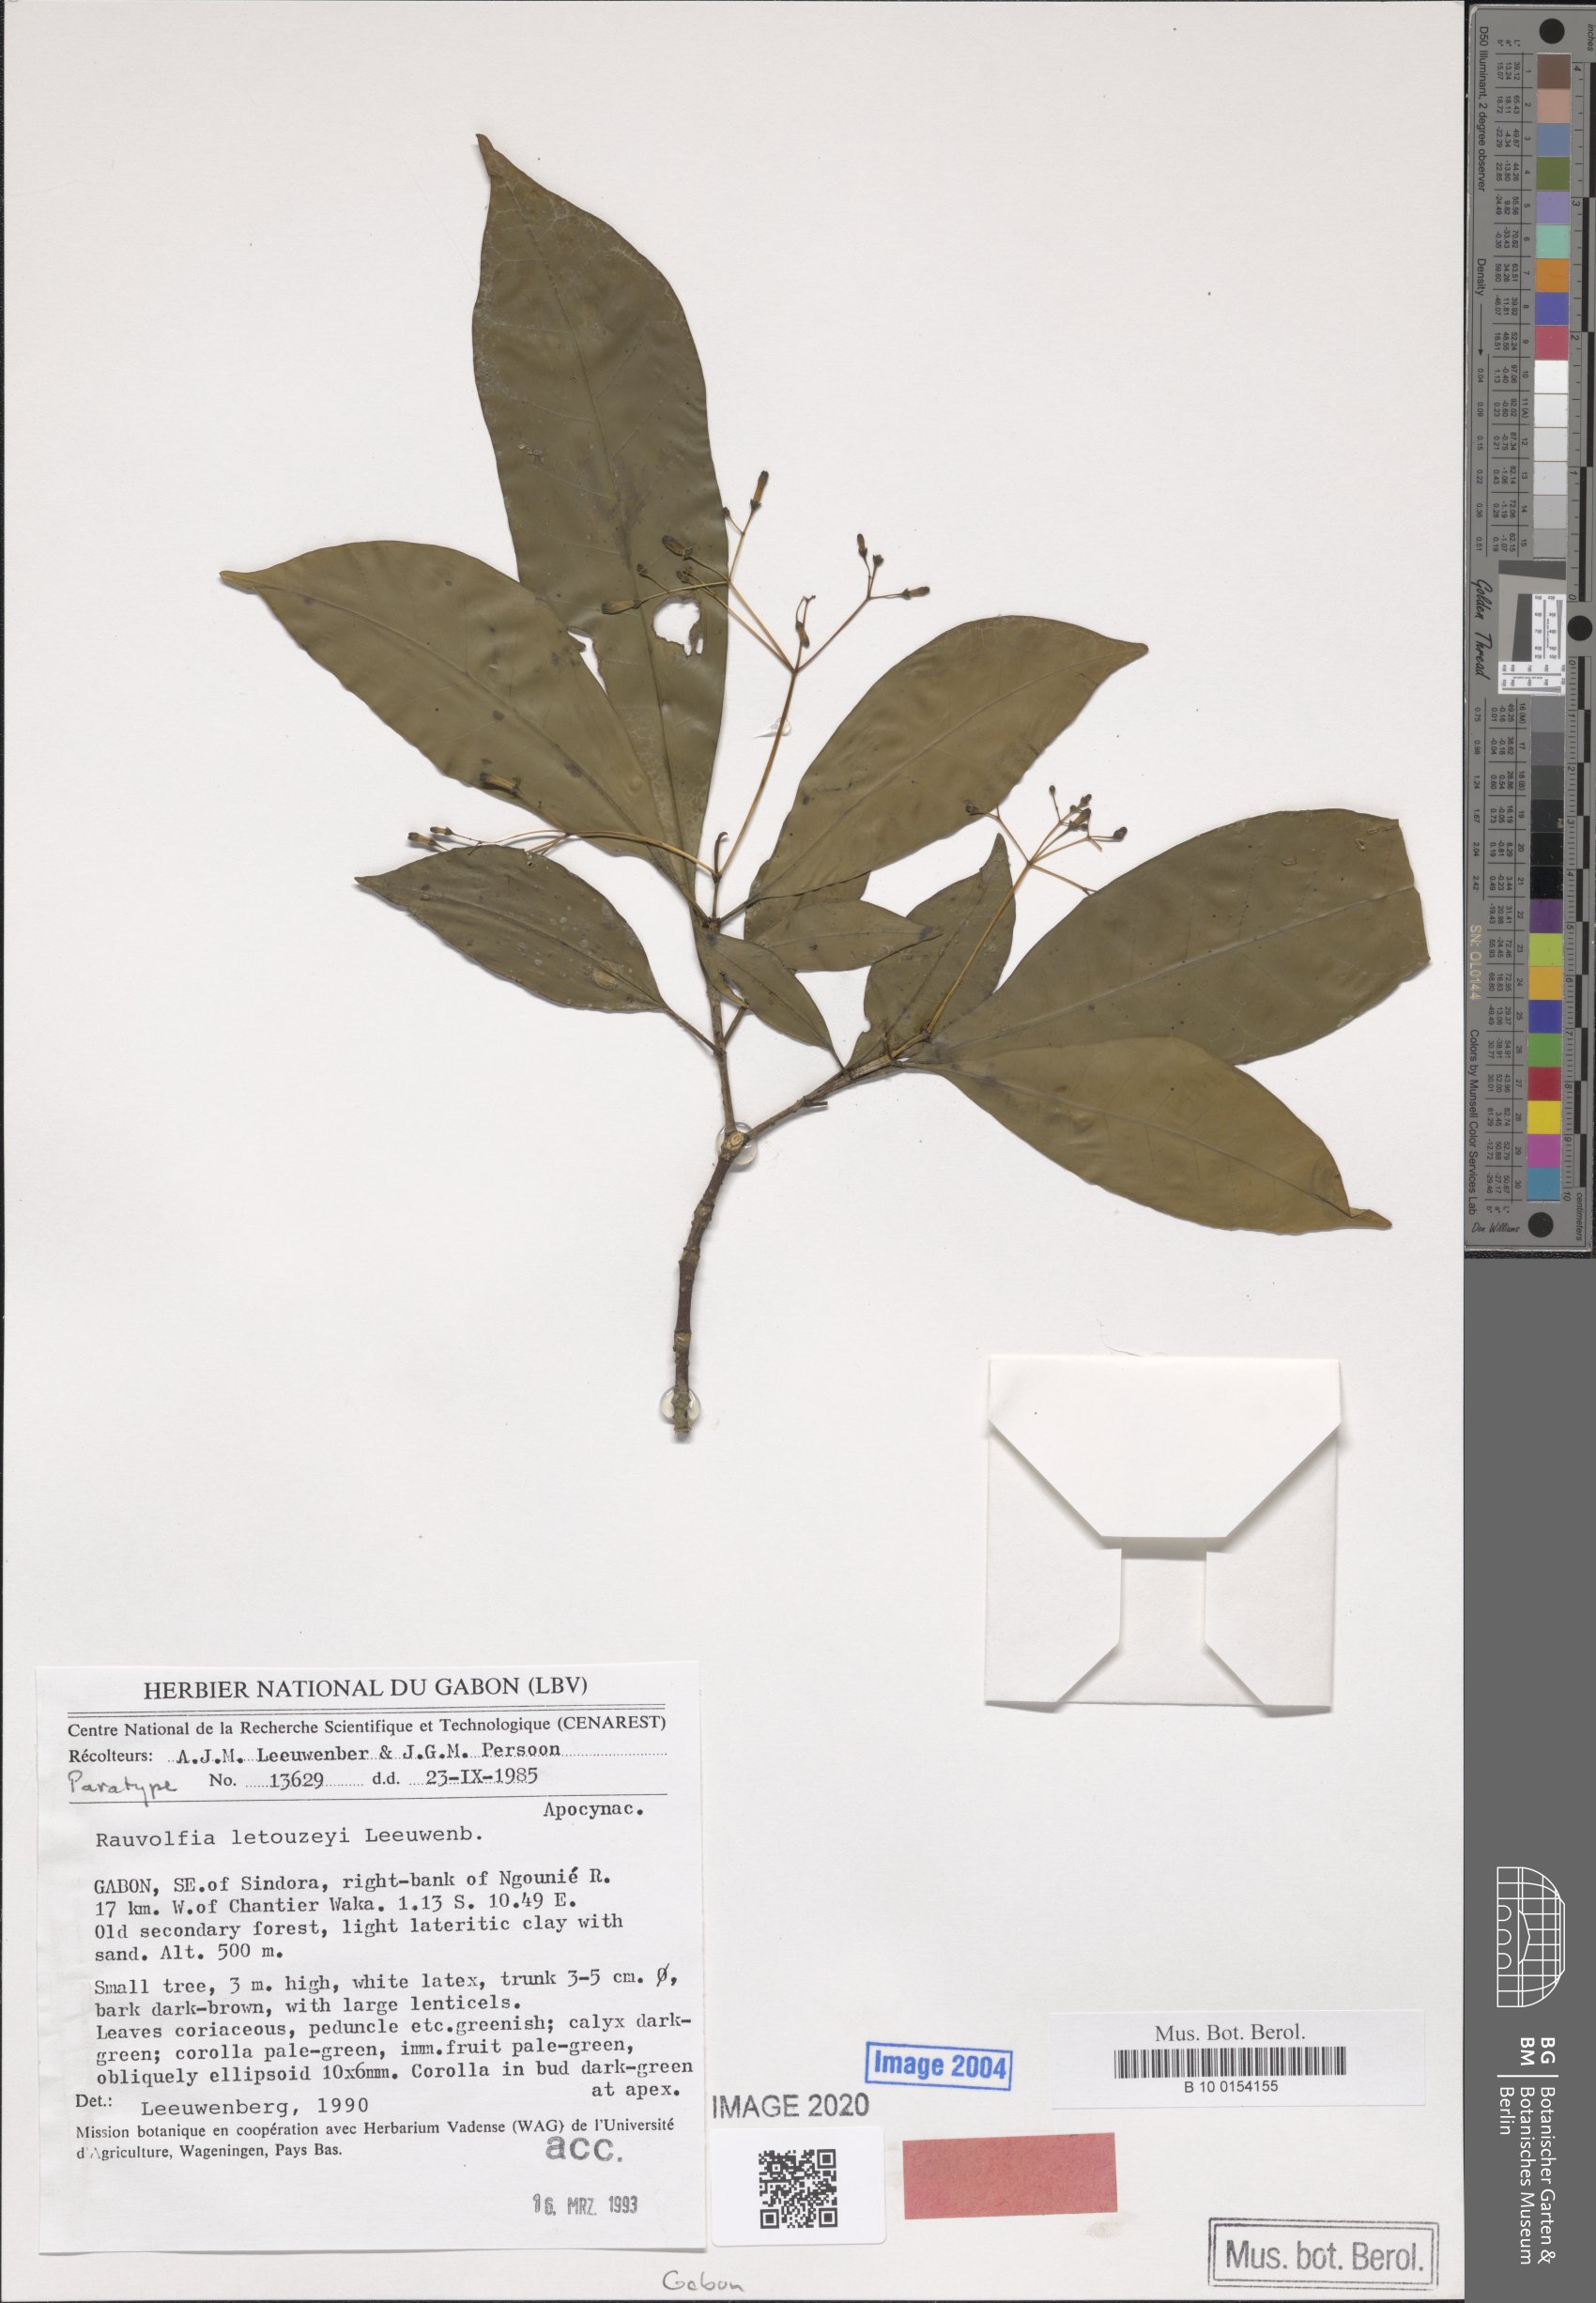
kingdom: Plantae
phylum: Tracheophyta
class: Magnoliopsida
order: Gentianales
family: Apocynaceae
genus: Rauvolfia
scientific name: Rauvolfia letouzeyi
